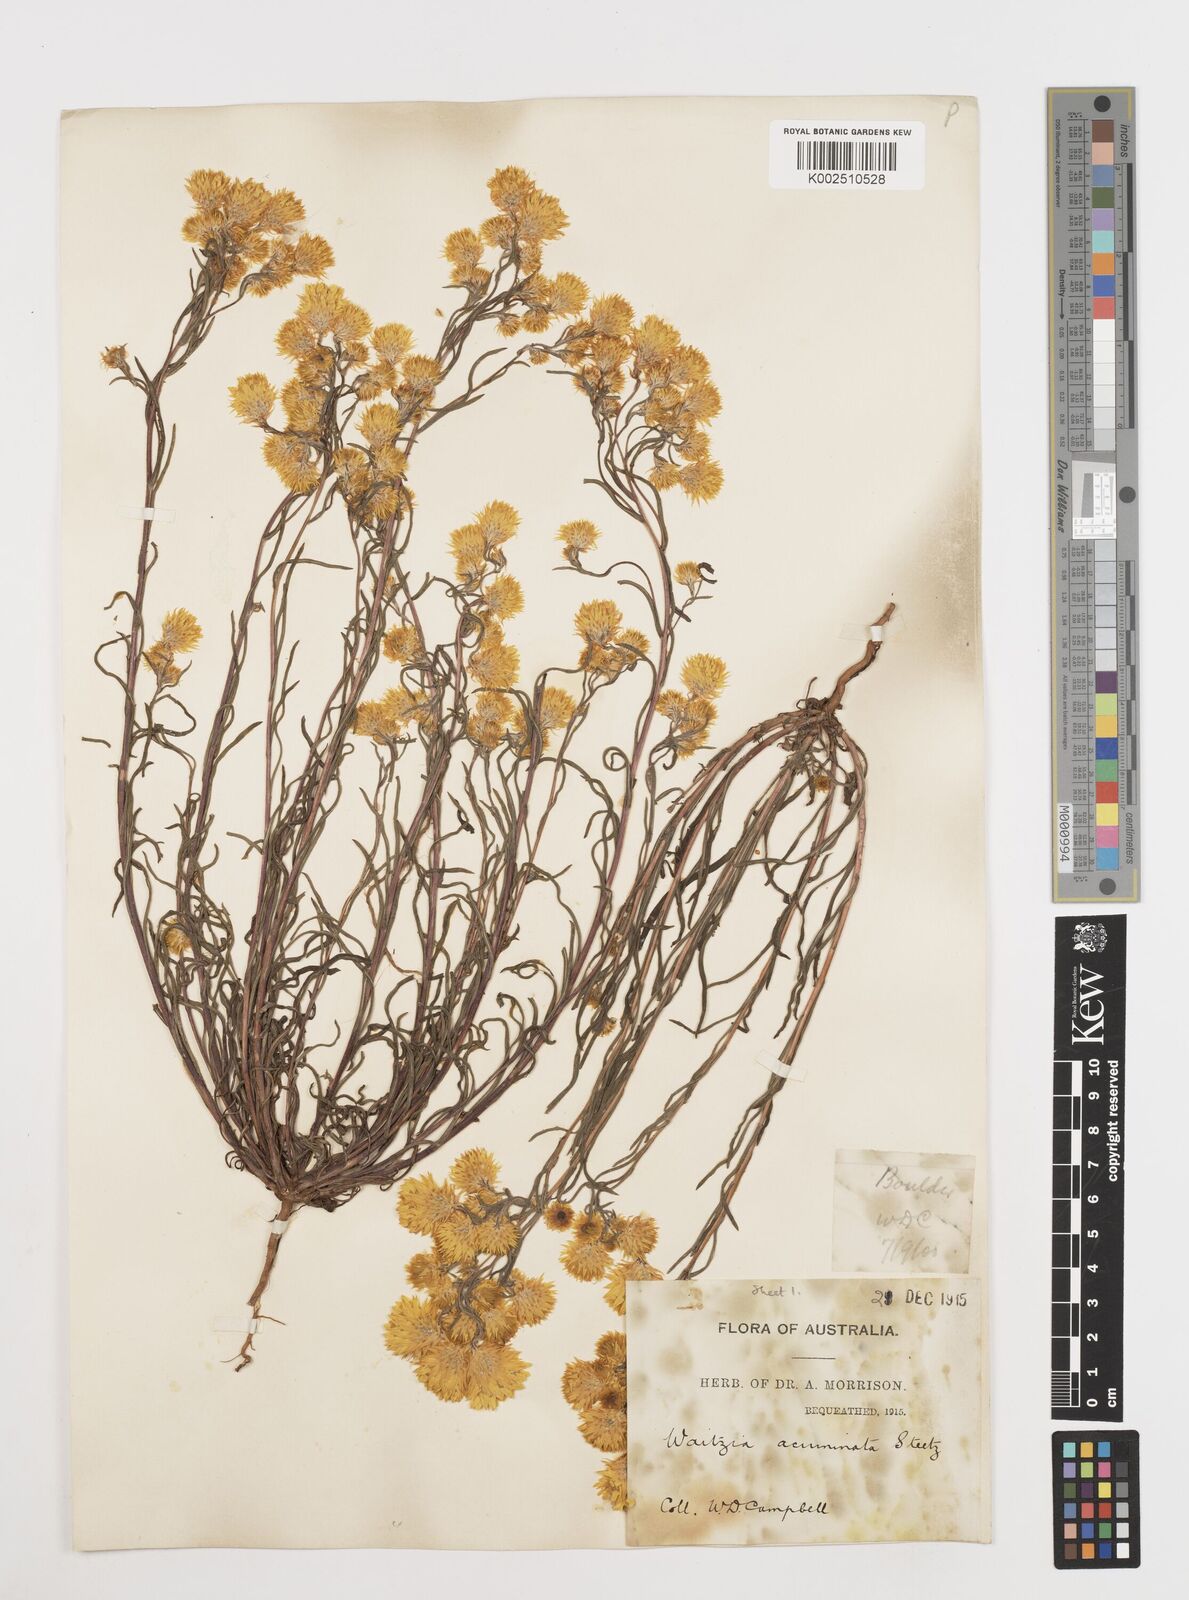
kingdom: Plantae
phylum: Tracheophyta
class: Magnoliopsida
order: Asterales
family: Asteraceae
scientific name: Asteraceae
